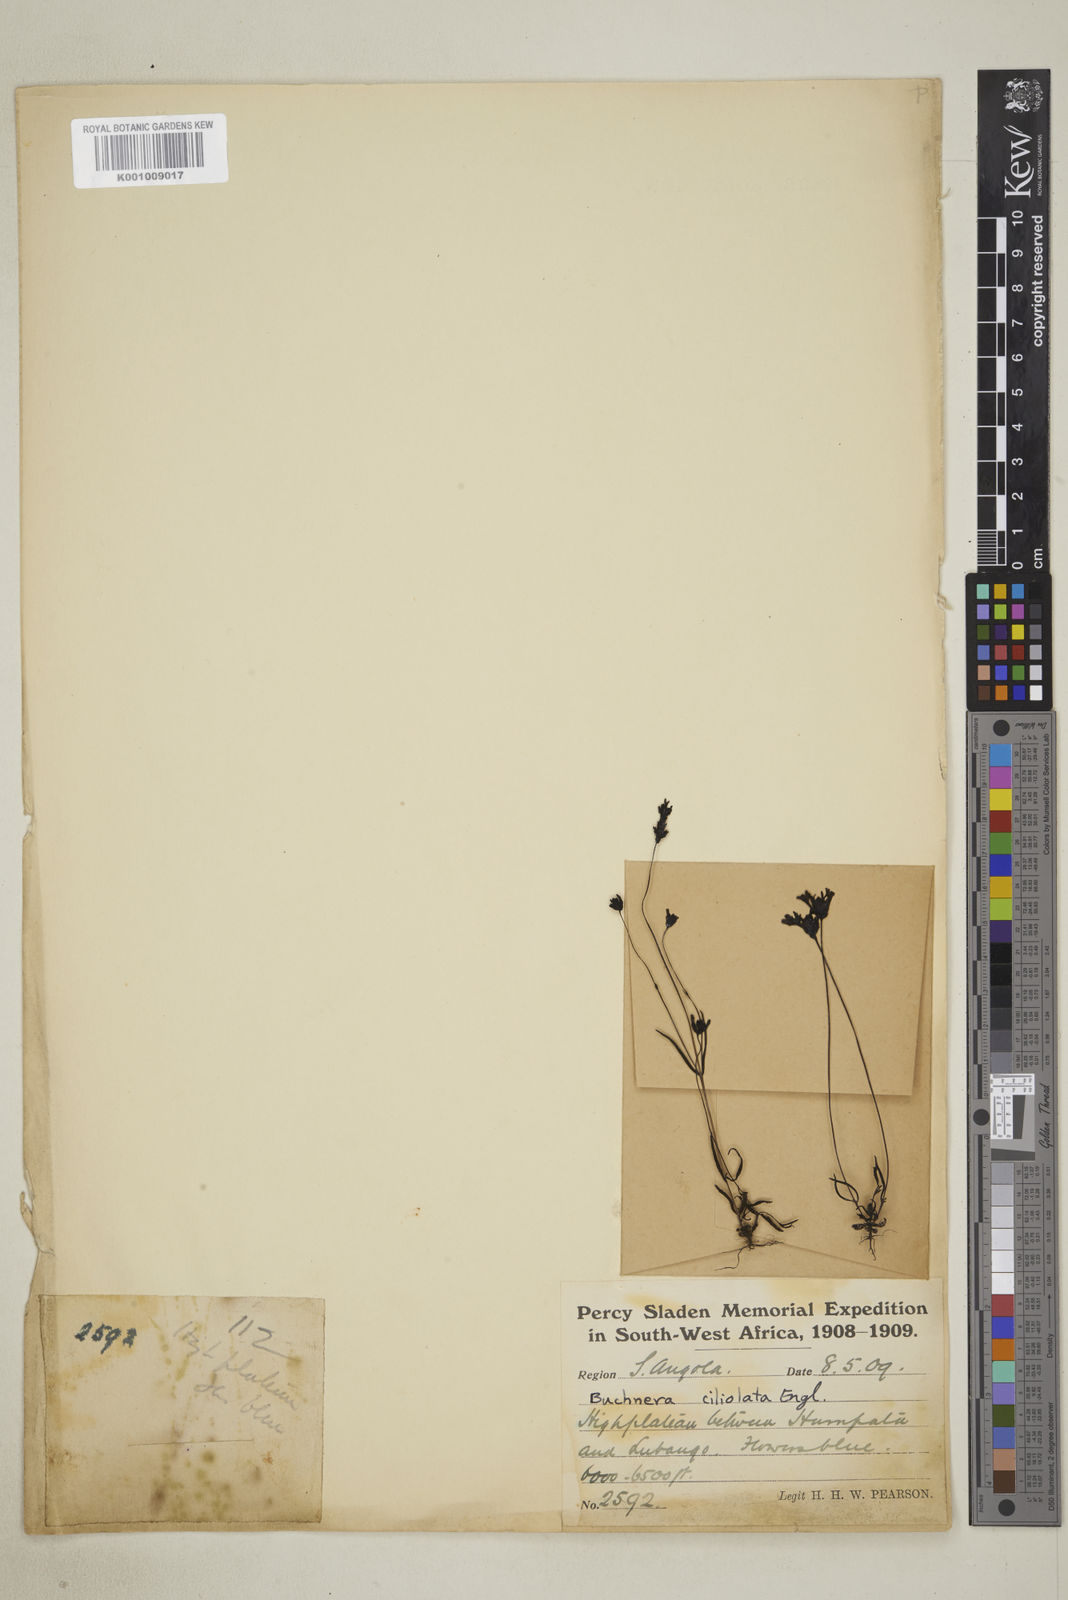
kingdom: Plantae
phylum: Tracheophyta
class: Magnoliopsida
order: Lamiales
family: Orobanchaceae
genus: Buchnera
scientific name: Buchnera ciliolata
